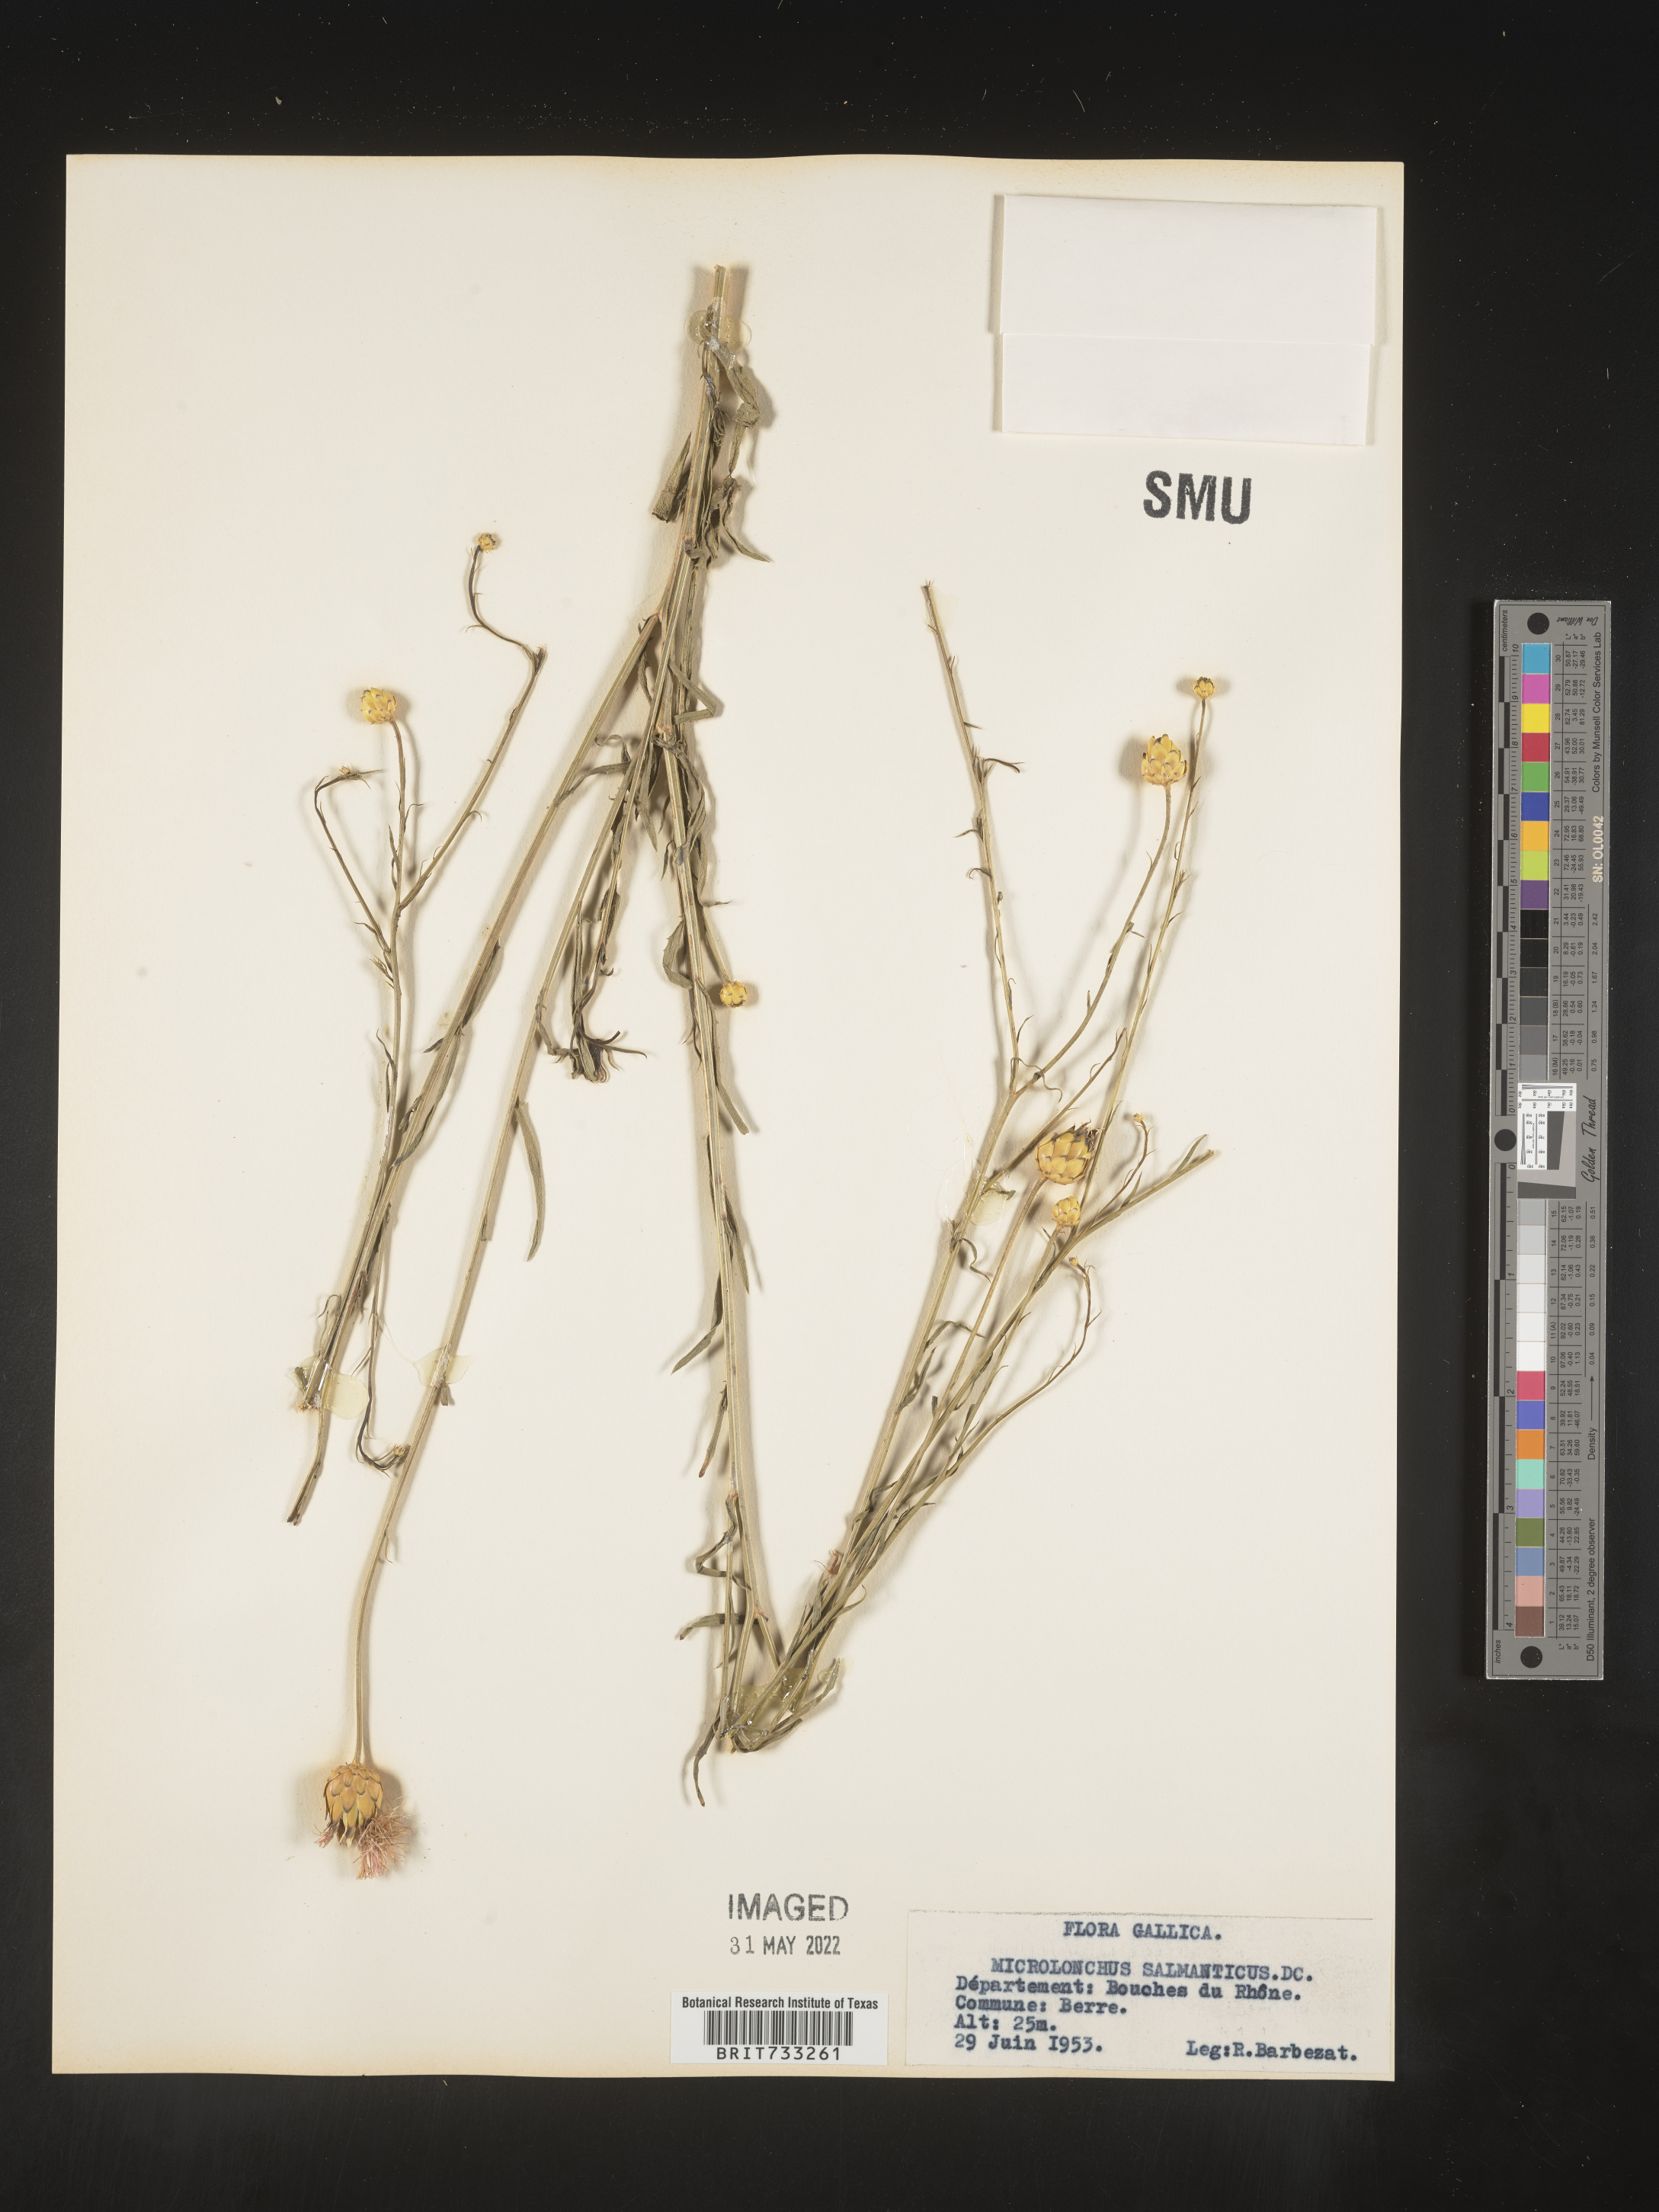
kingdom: Plantae
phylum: Tracheophyta
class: Magnoliopsida
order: Asterales
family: Asteraceae
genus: Mantisalca
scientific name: Mantisalca
